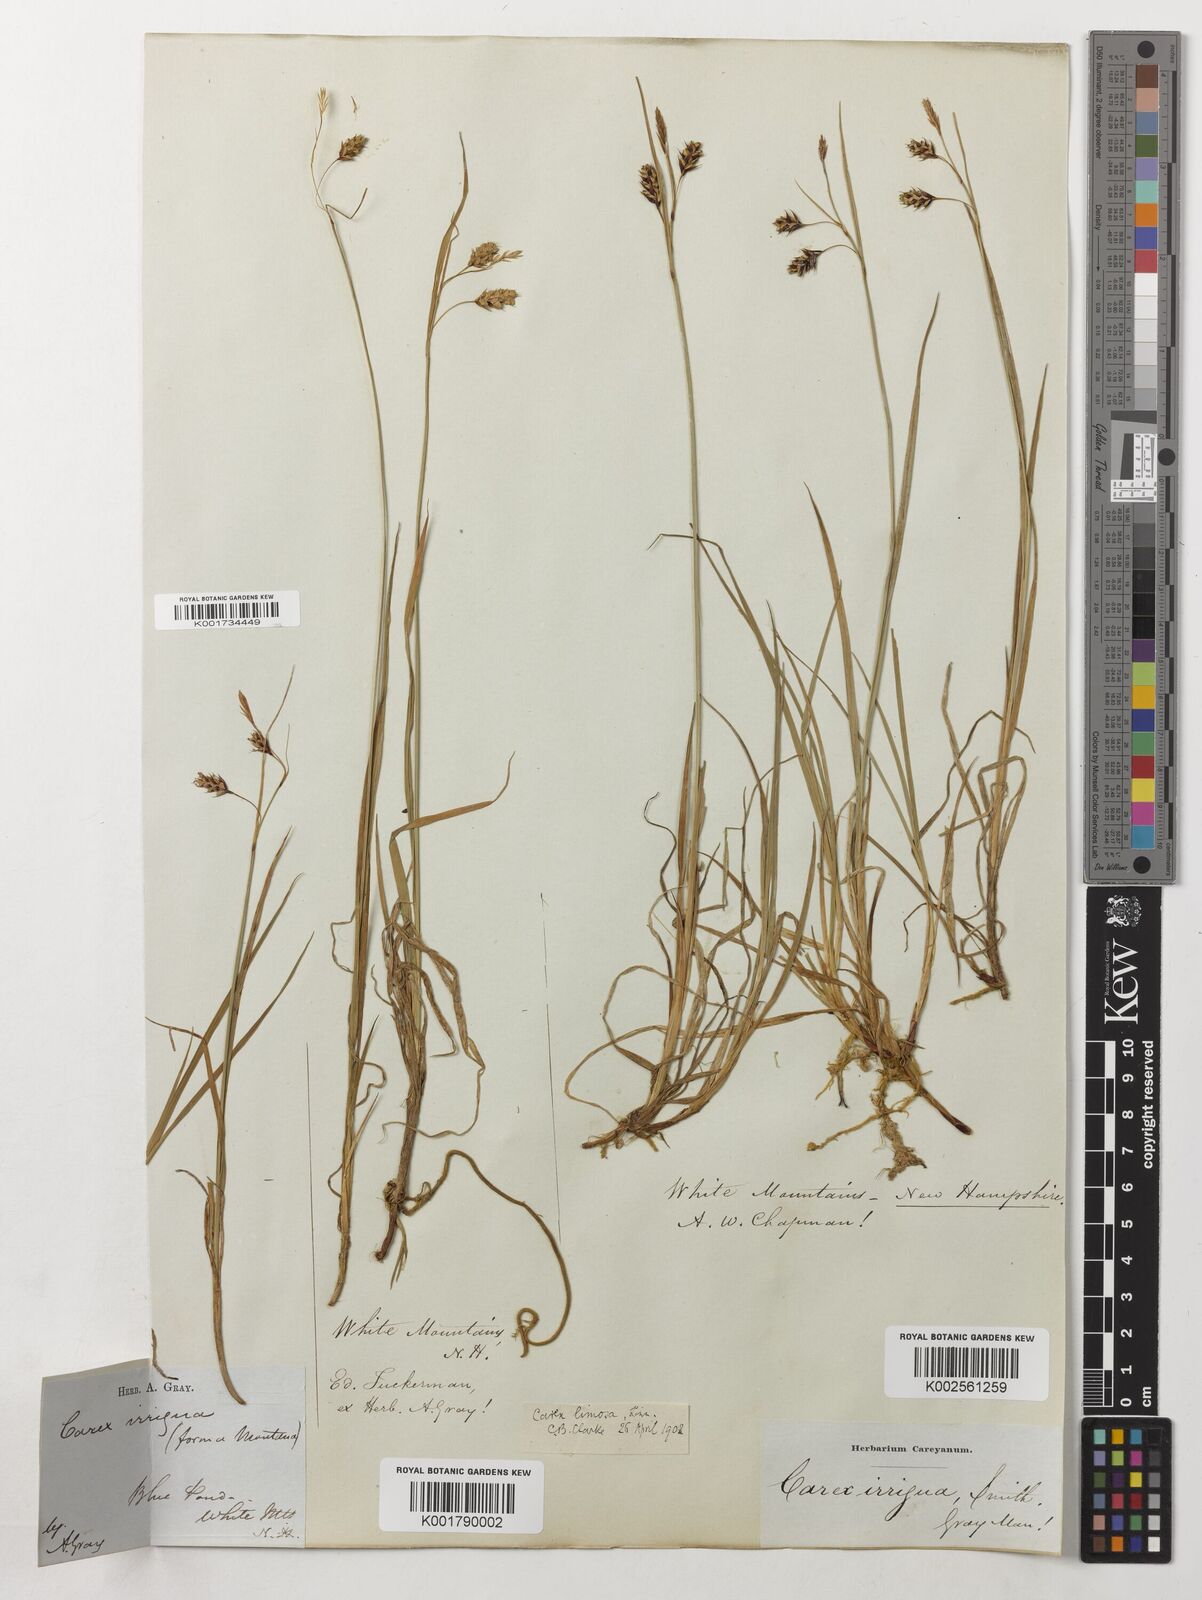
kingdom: Plantae
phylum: Tracheophyta
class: Liliopsida
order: Poales
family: Cyperaceae
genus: Carex
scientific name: Carex limosa
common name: Bog sedge
